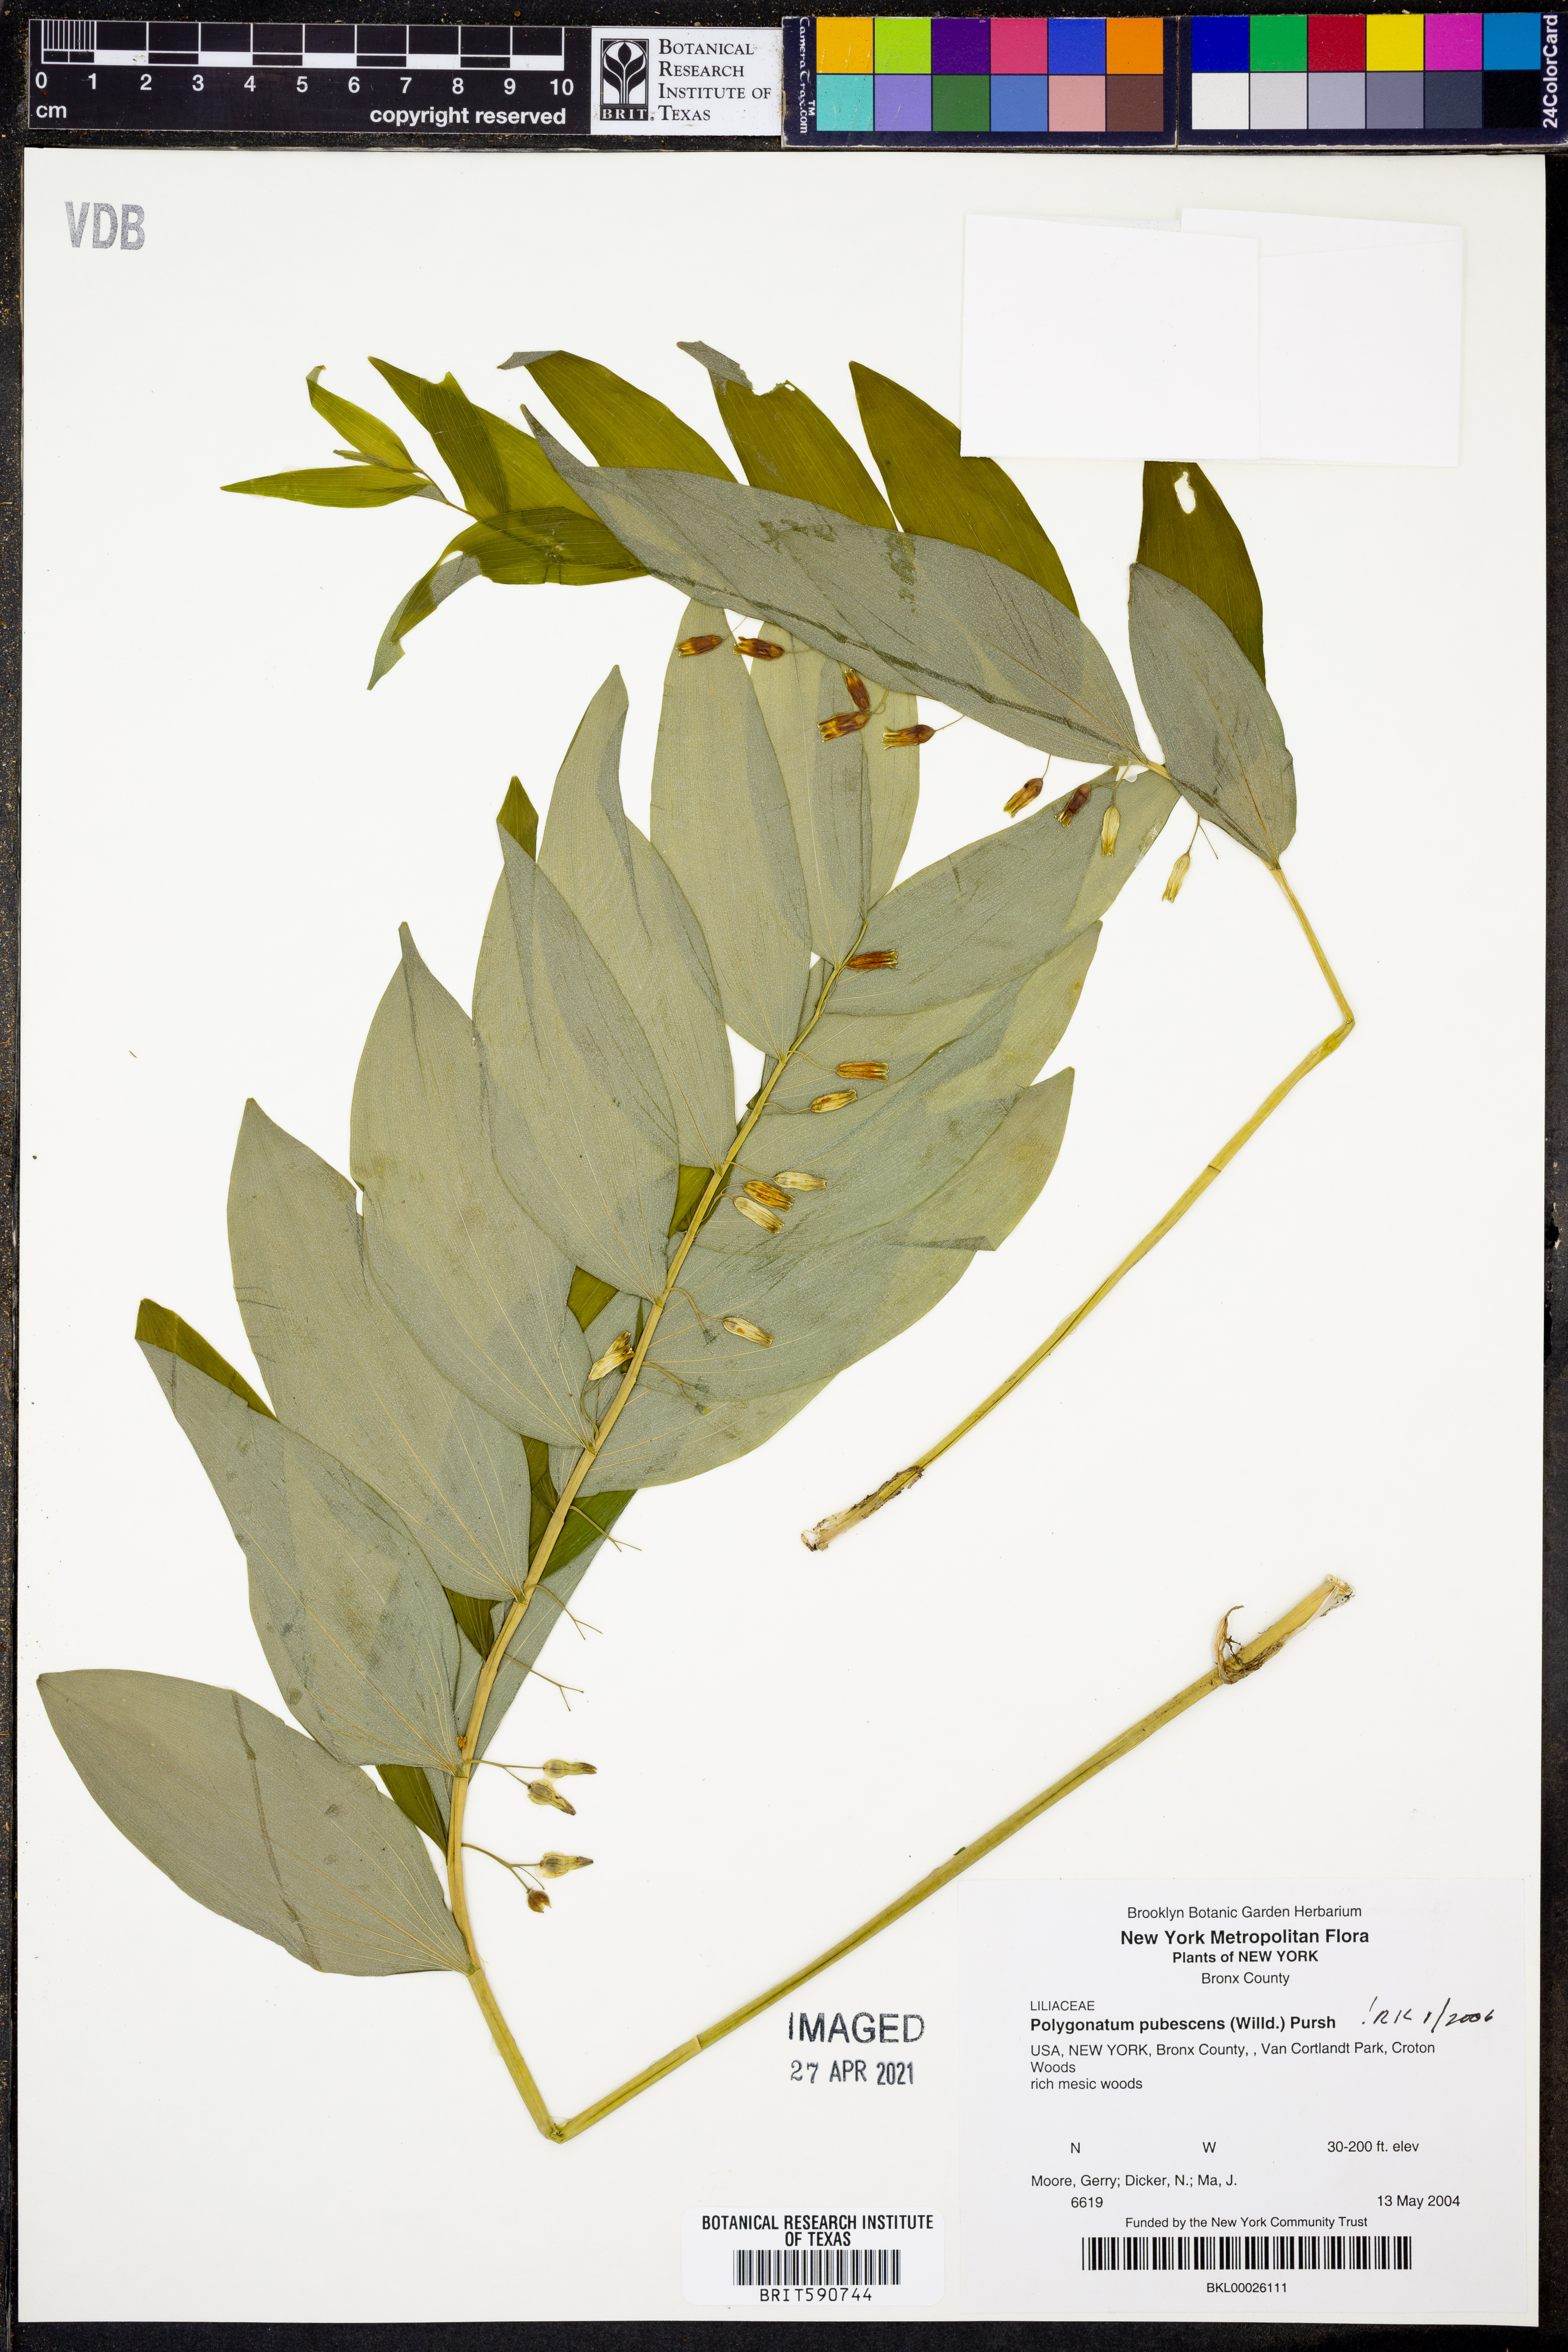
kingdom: Plantae
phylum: Tracheophyta
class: Liliopsida
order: Asparagales
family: Asparagaceae
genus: Polygonatum
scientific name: Polygonatum pubescens
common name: Downy solomon's seal
